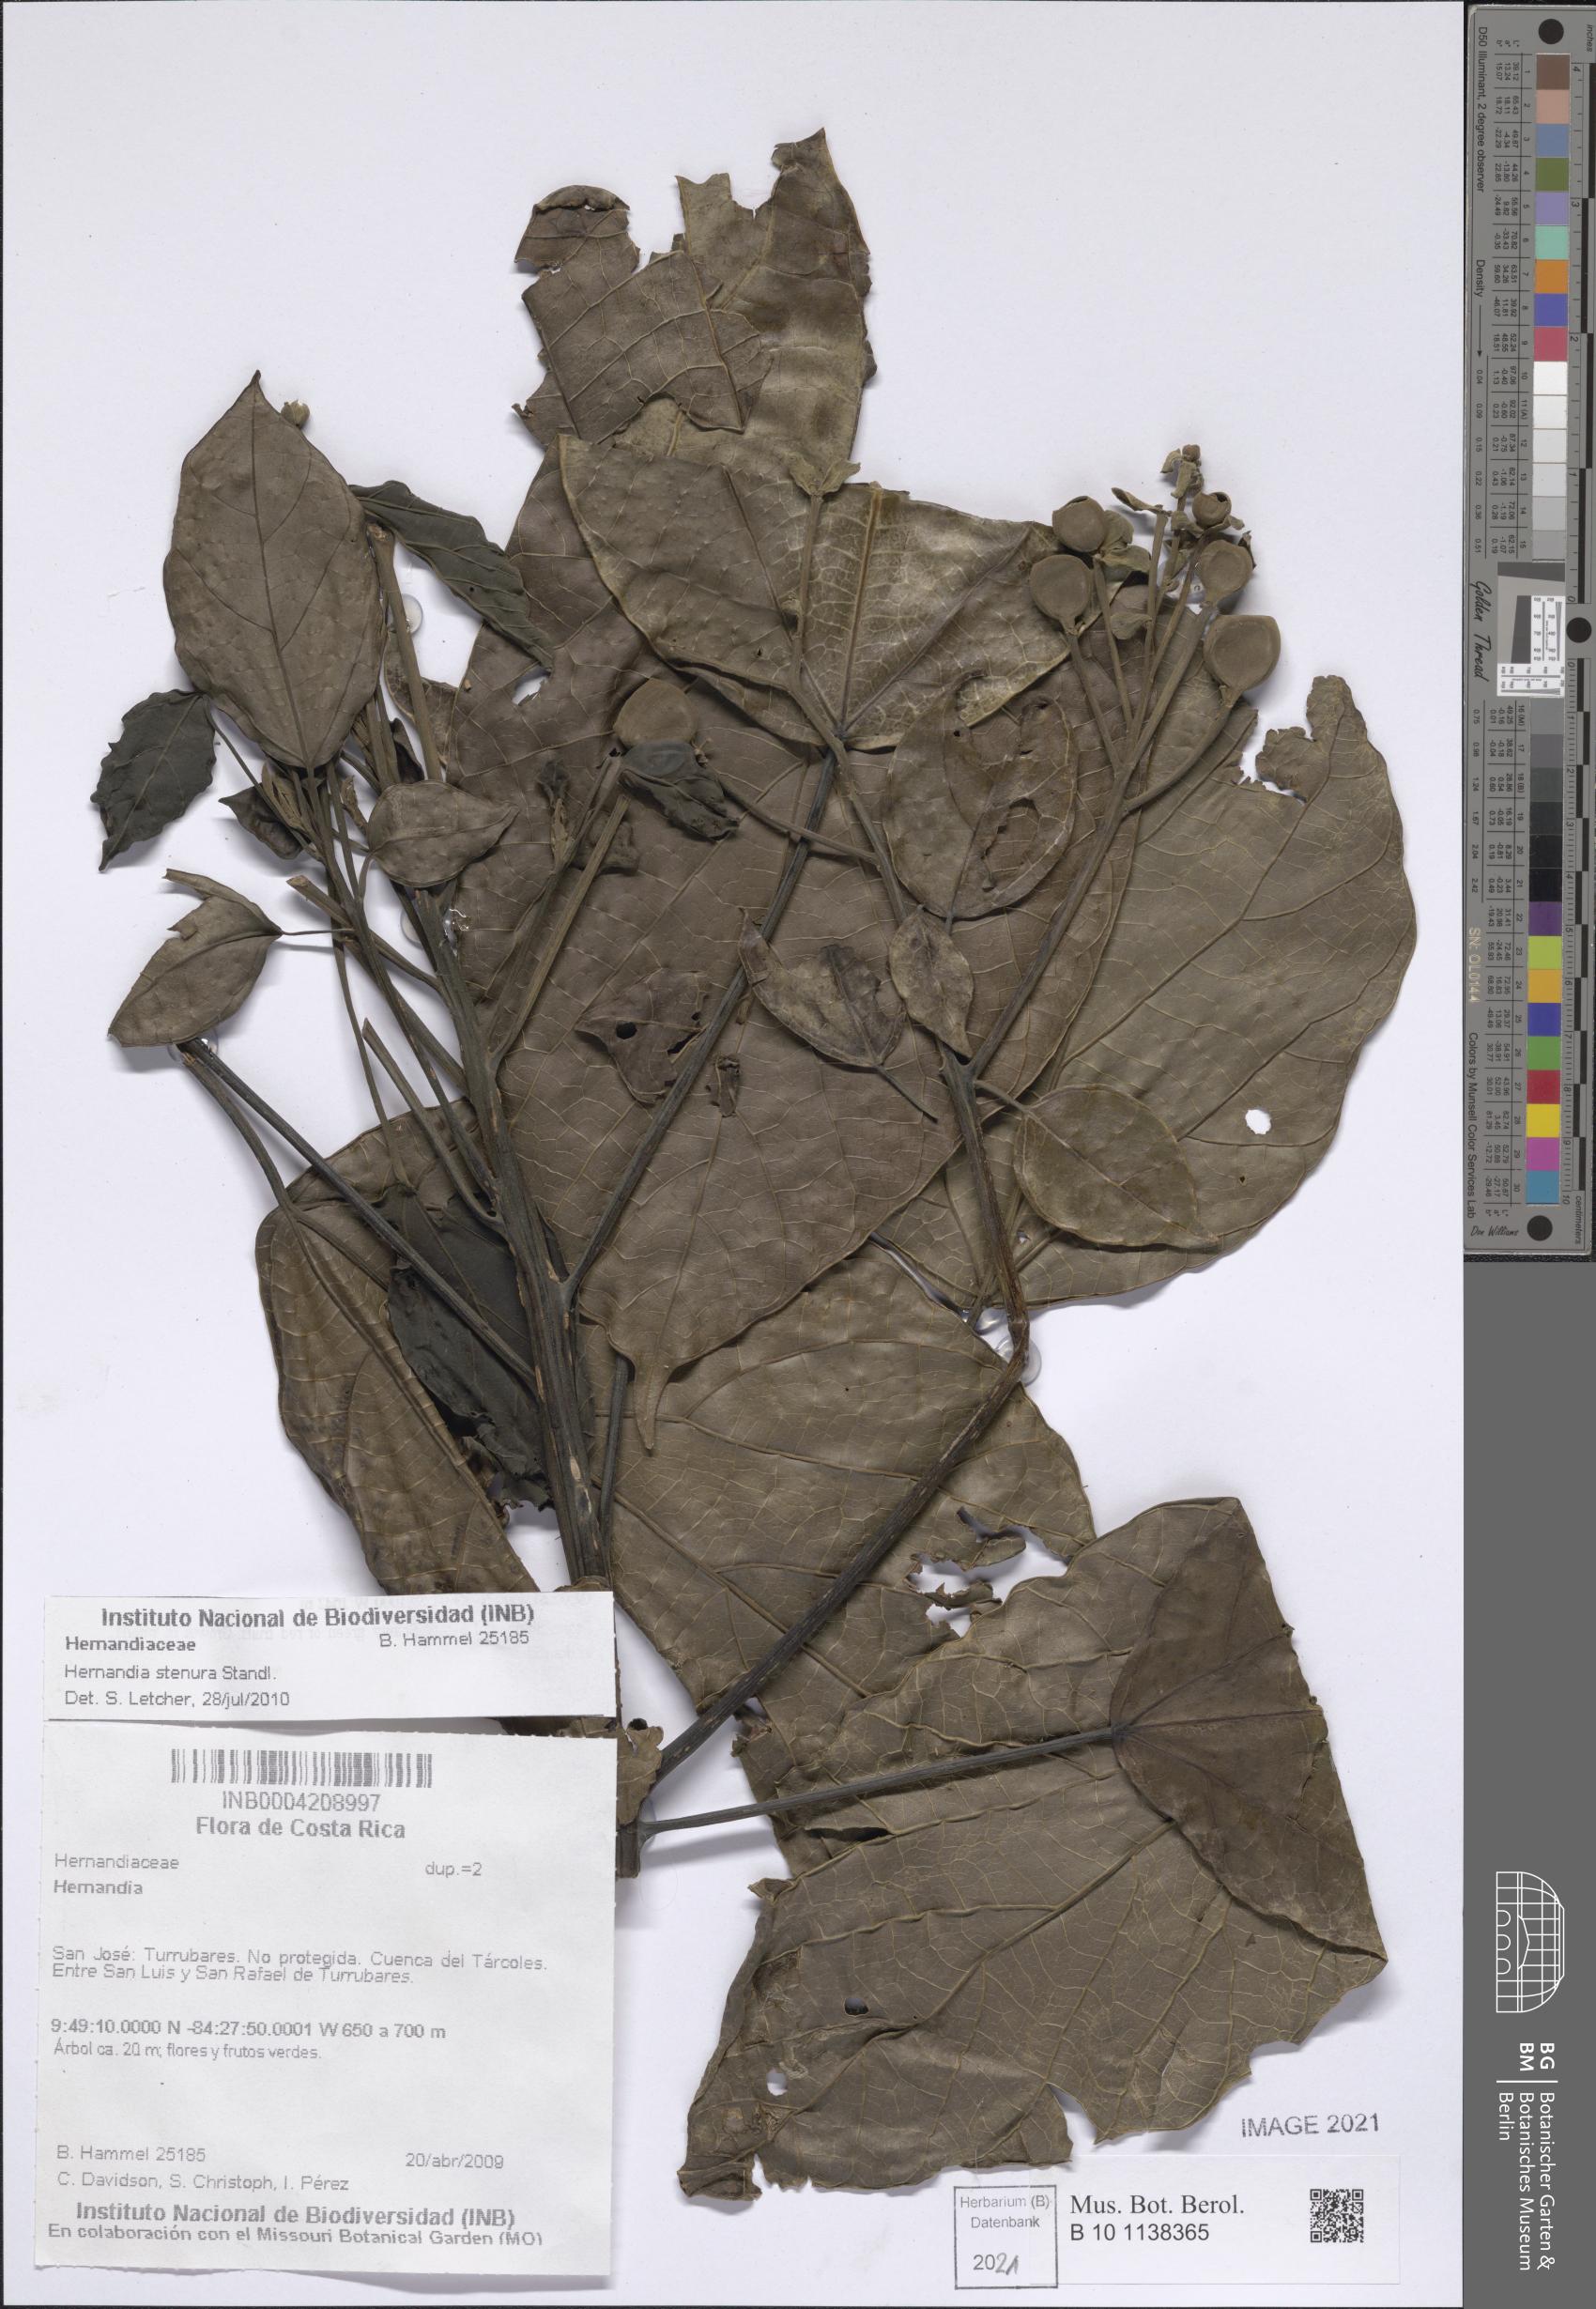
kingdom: Plantae
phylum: Tracheophyta
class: Magnoliopsida
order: Laurales
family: Hernandiaceae
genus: Hernandia
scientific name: Hernandia stenura
